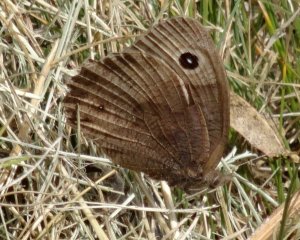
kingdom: Animalia
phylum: Arthropoda
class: Insecta
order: Lepidoptera
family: Nymphalidae
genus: Cercyonis
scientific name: Cercyonis pegala
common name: Common Wood-Nymph
